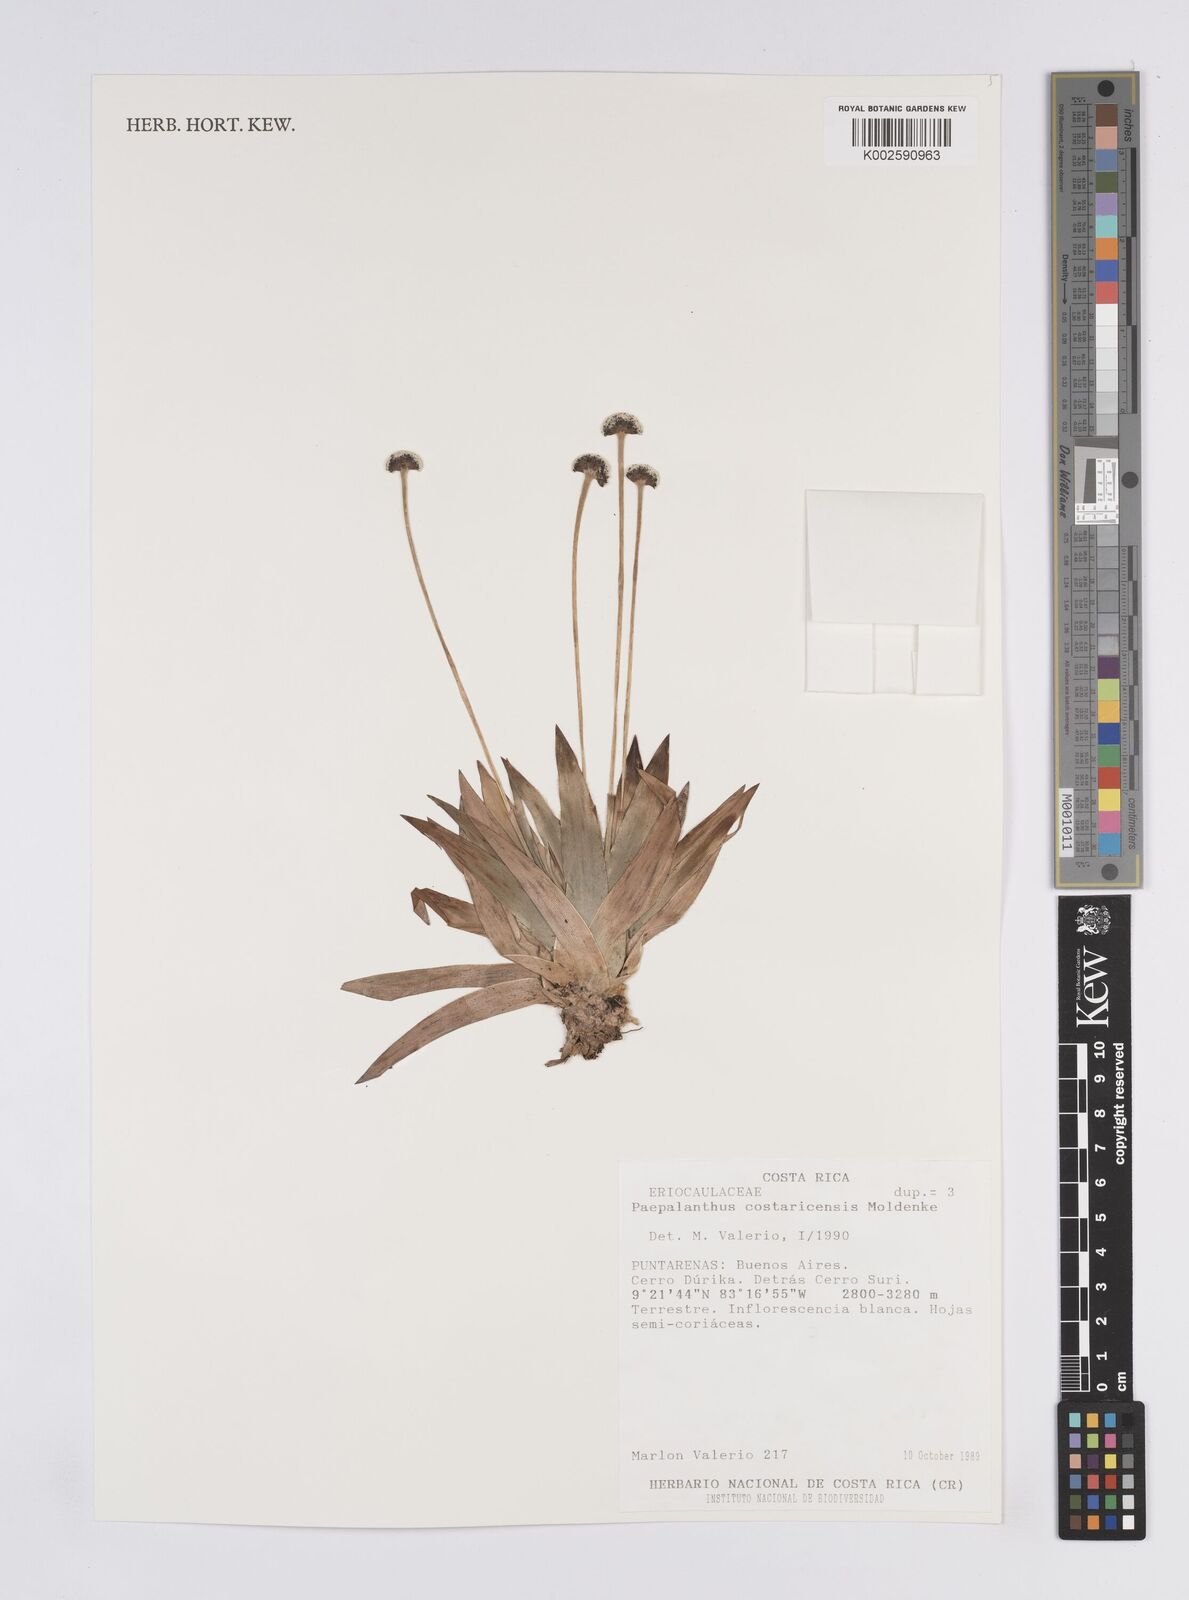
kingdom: Plantae
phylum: Tracheophyta
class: Liliopsida
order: Poales
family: Eriocaulaceae
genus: Paepalanthus
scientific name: Paepalanthus costaricensis
